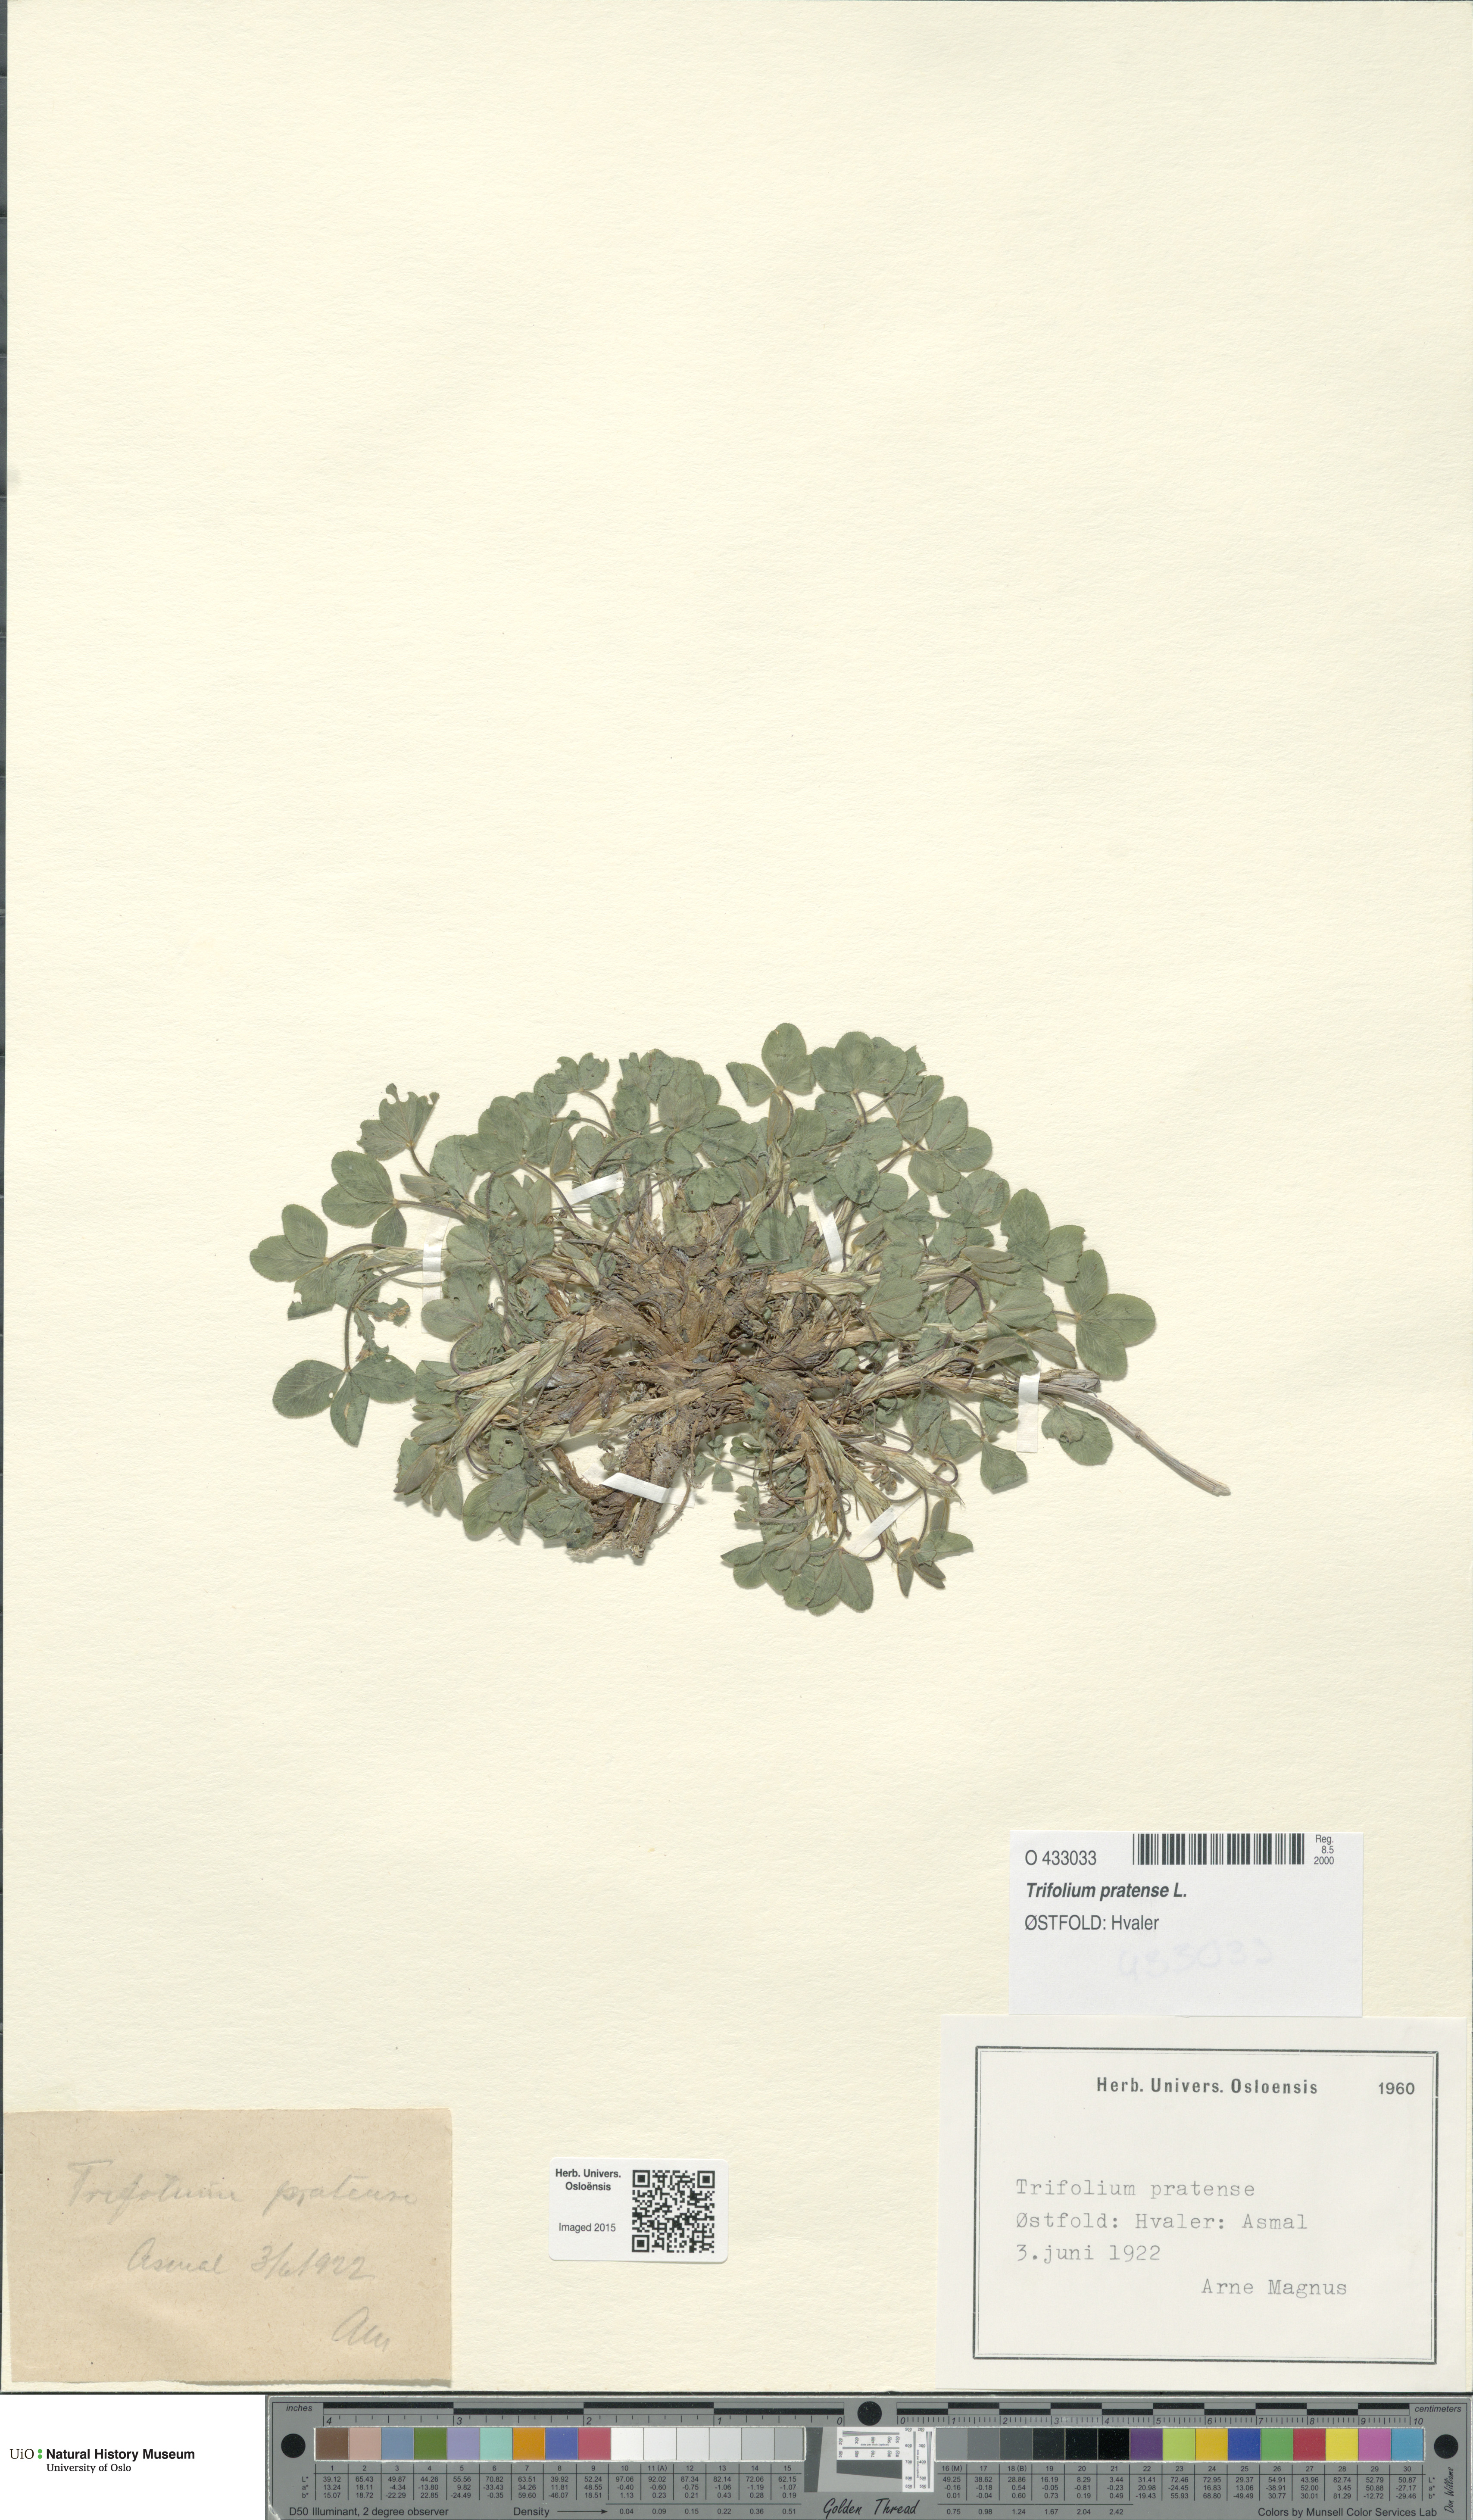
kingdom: Plantae
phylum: Tracheophyta
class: Magnoliopsida
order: Fabales
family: Fabaceae
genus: Trifolium
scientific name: Trifolium pratense
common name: Red clover
